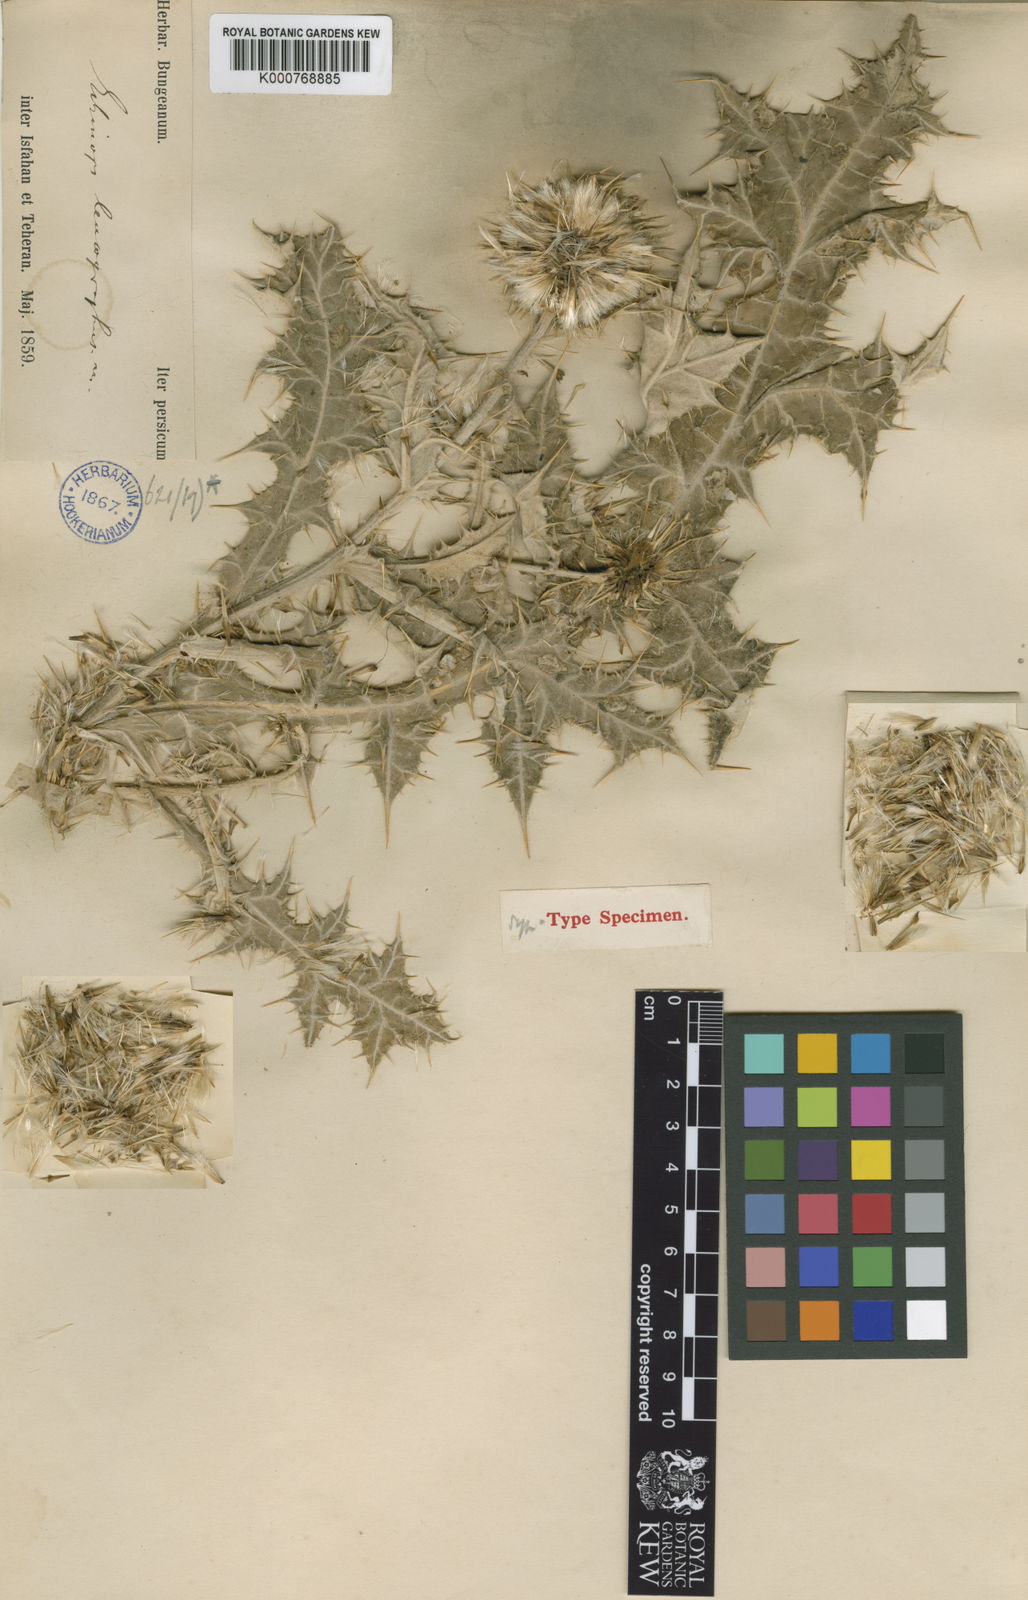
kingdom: Plantae
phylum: Tracheophyta
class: Magnoliopsida
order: Asterales
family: Asteraceae
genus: Echinops
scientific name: Echinops leucographus
